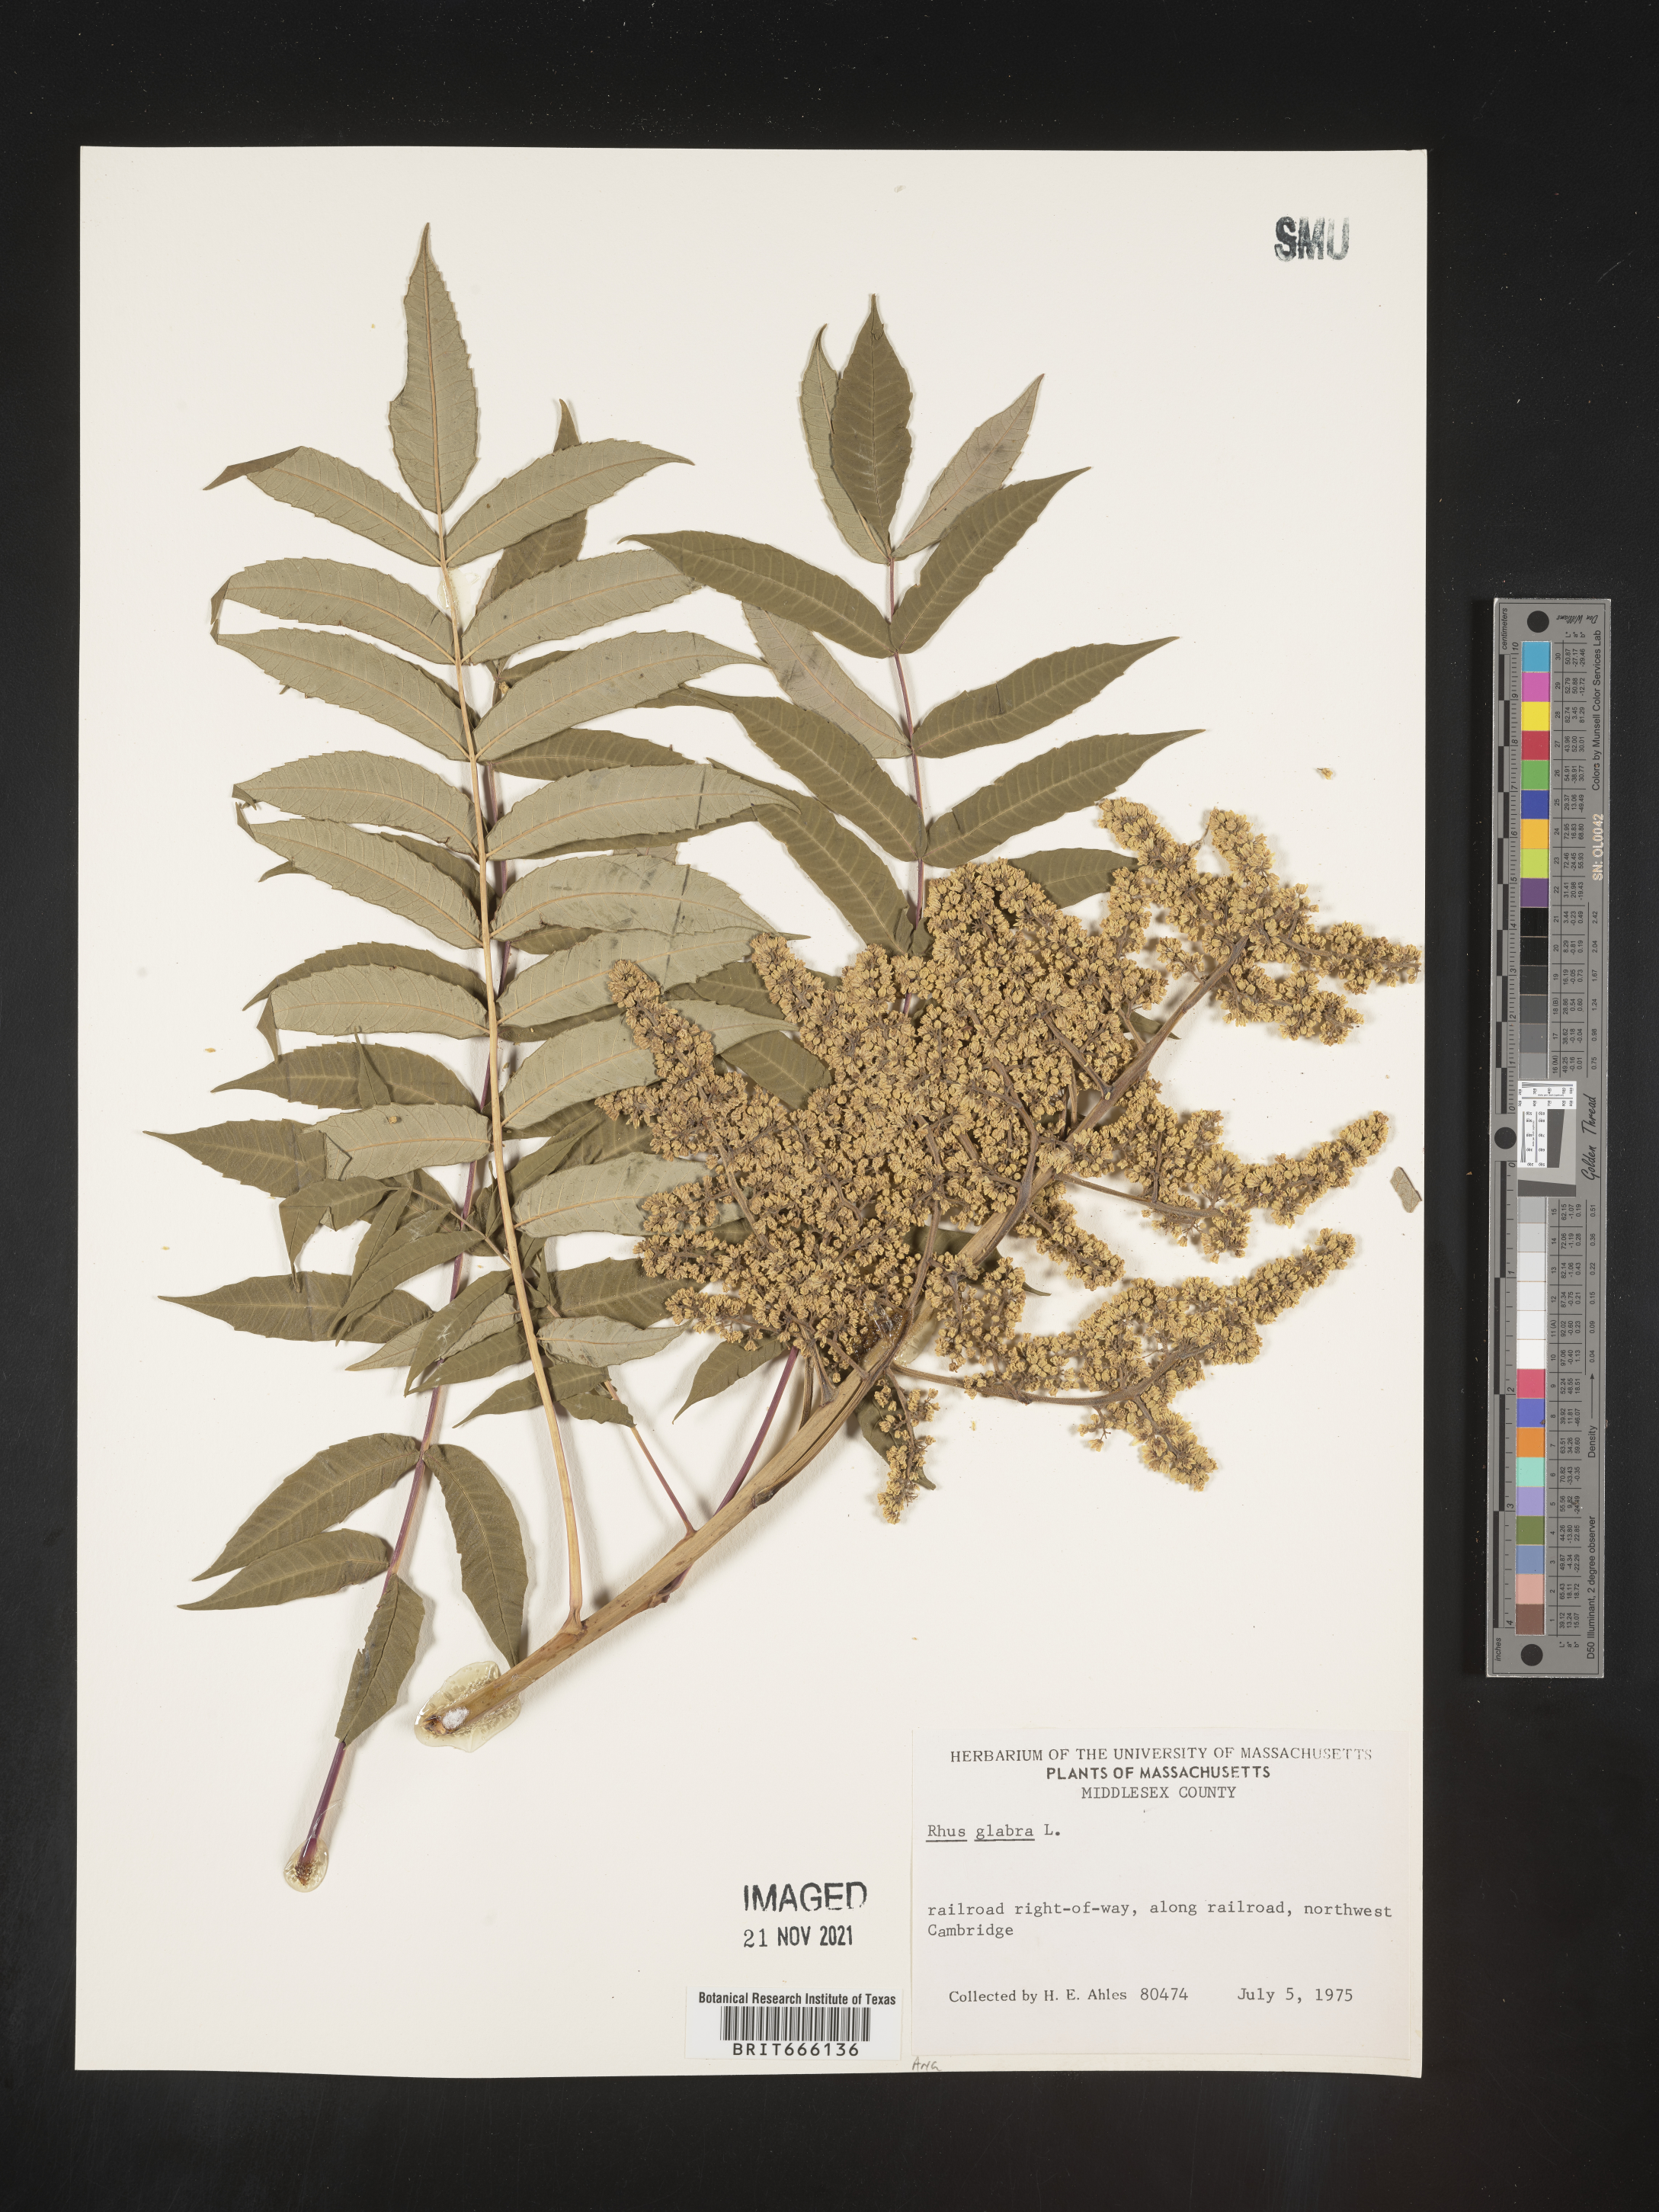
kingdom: Plantae
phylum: Tracheophyta
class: Magnoliopsida
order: Sapindales
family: Anacardiaceae
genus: Rhus
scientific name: Rhus glabra
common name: Scarlet sumac
